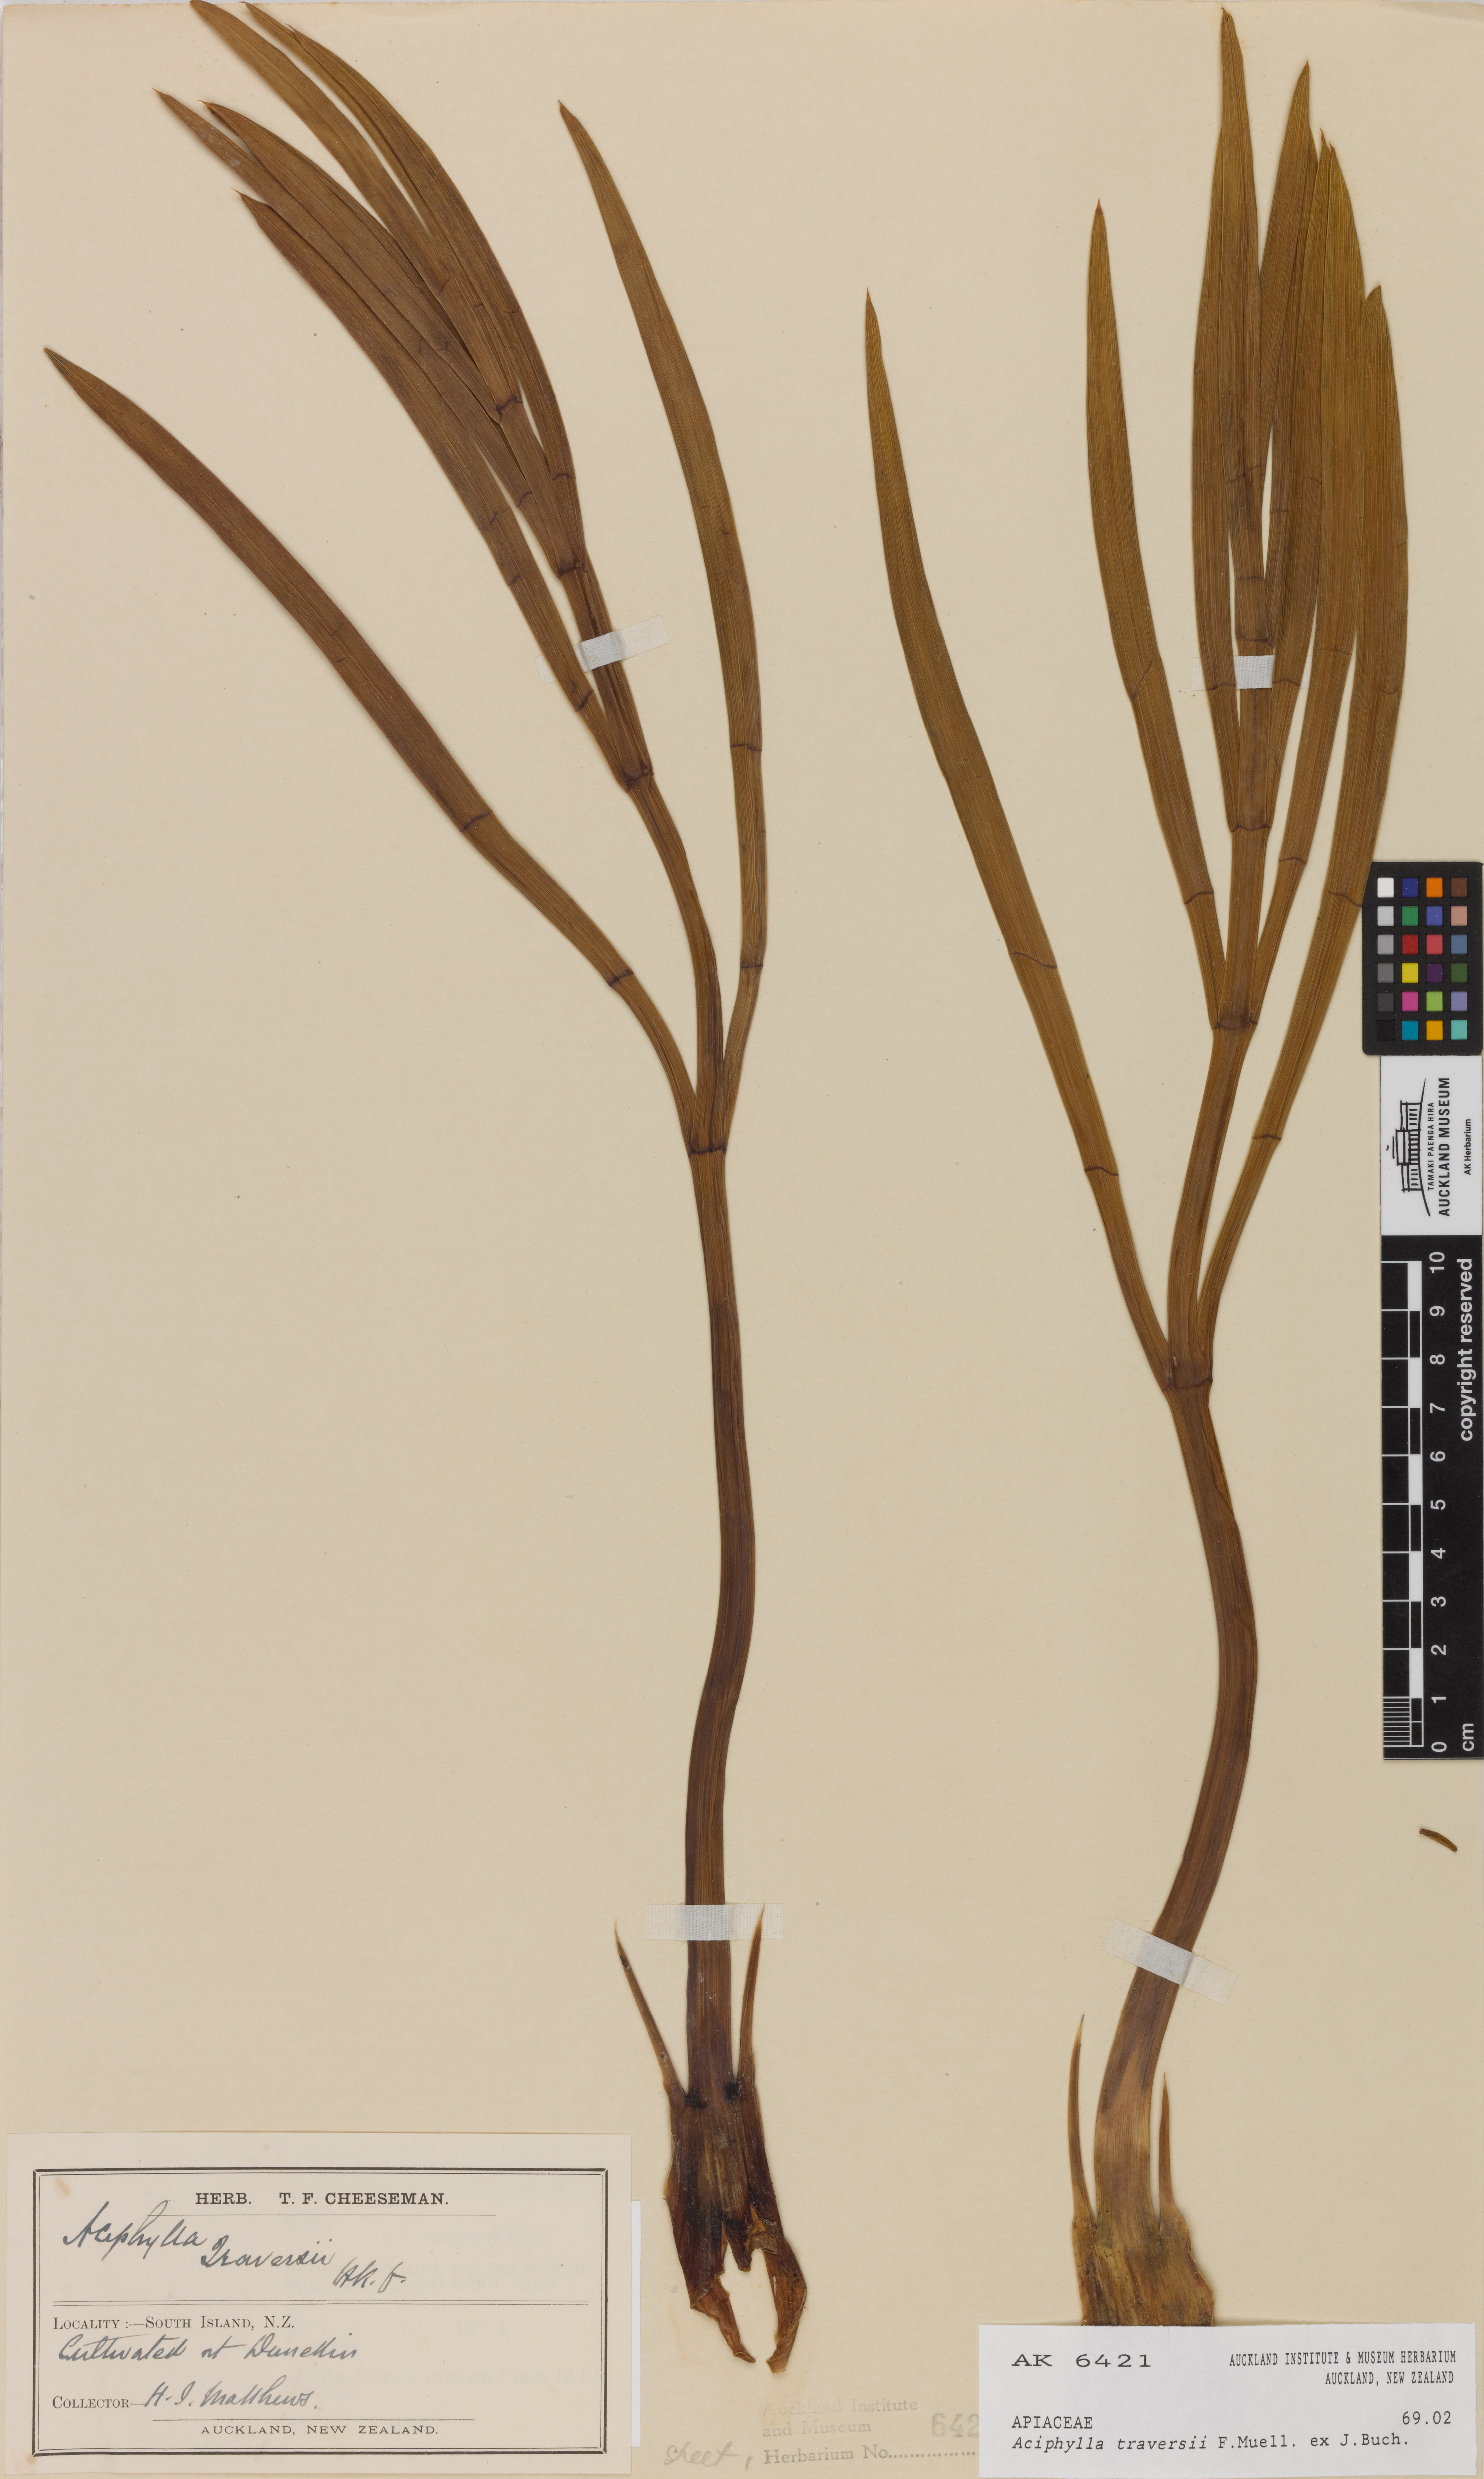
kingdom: Plantae
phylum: Tracheophyta
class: Magnoliopsida
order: Apiales
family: Apiaceae
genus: Aciphylla
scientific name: Aciphylla traversii
